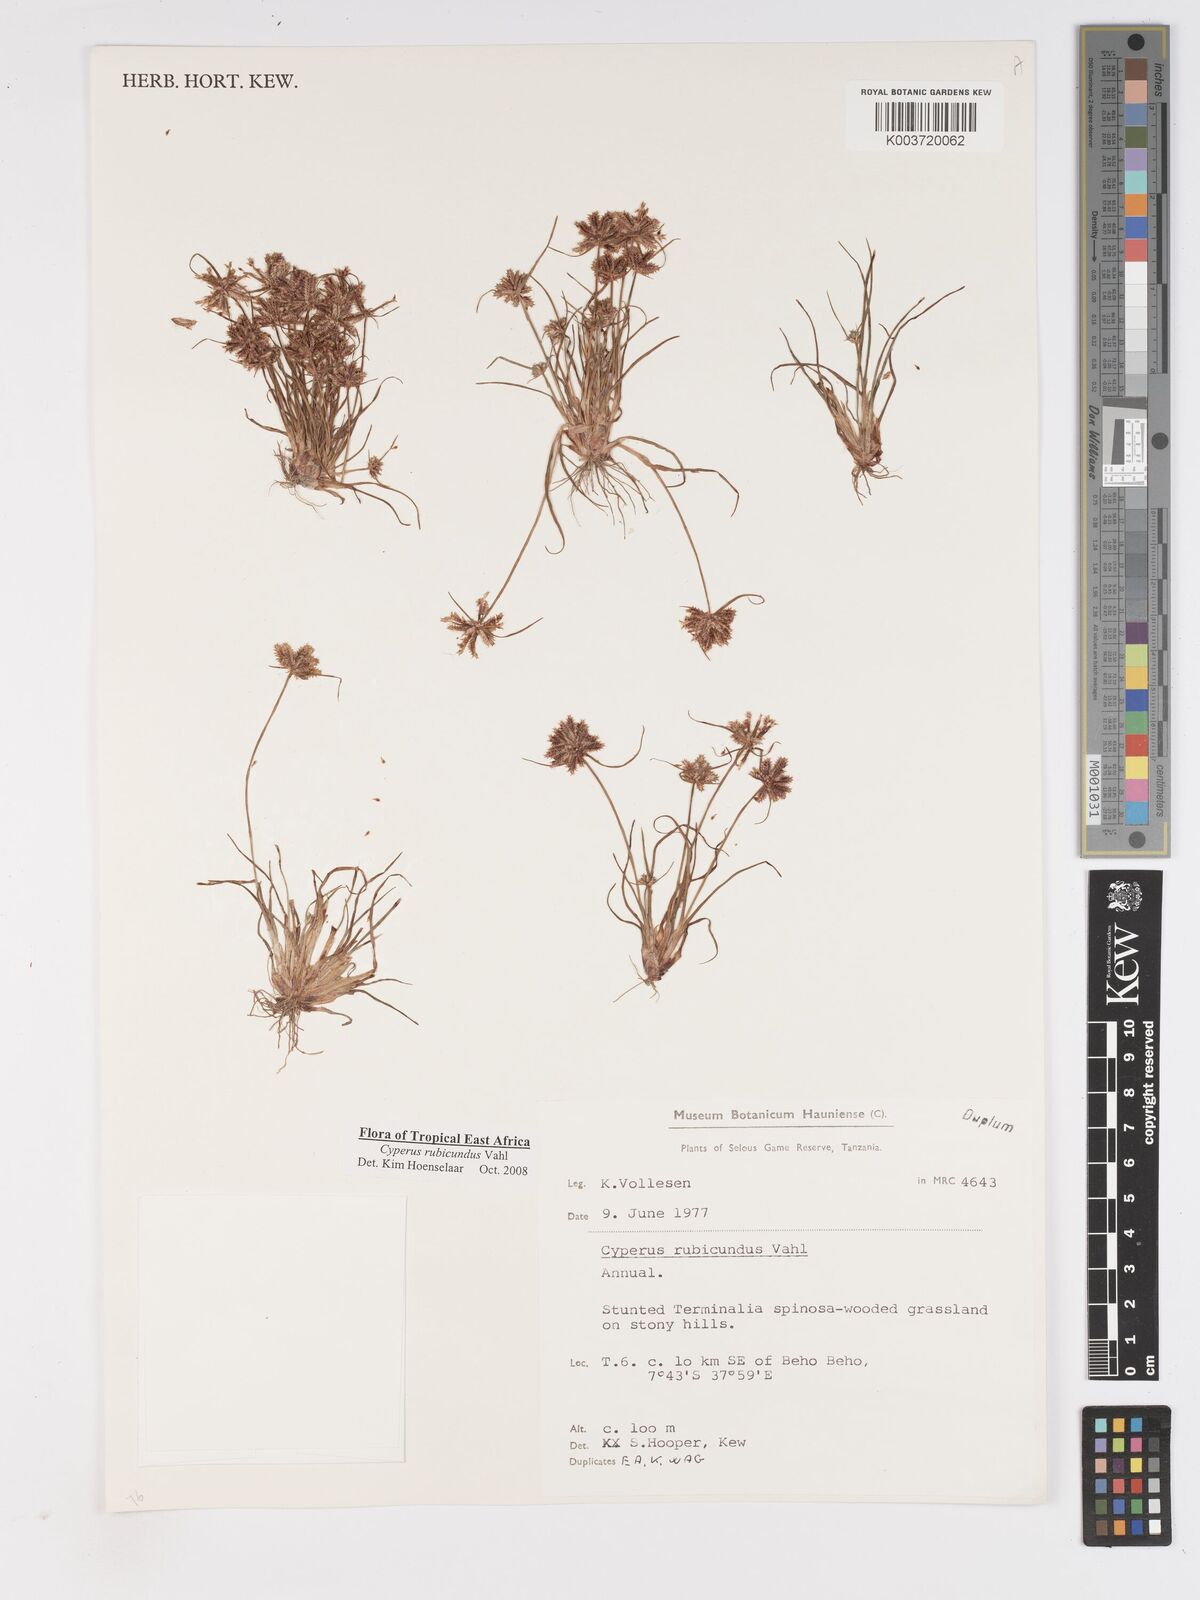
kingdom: Plantae
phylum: Tracheophyta
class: Liliopsida
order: Poales
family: Cyperaceae
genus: Cyperus
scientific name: Cyperus rubicundus
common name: Coco-grass
